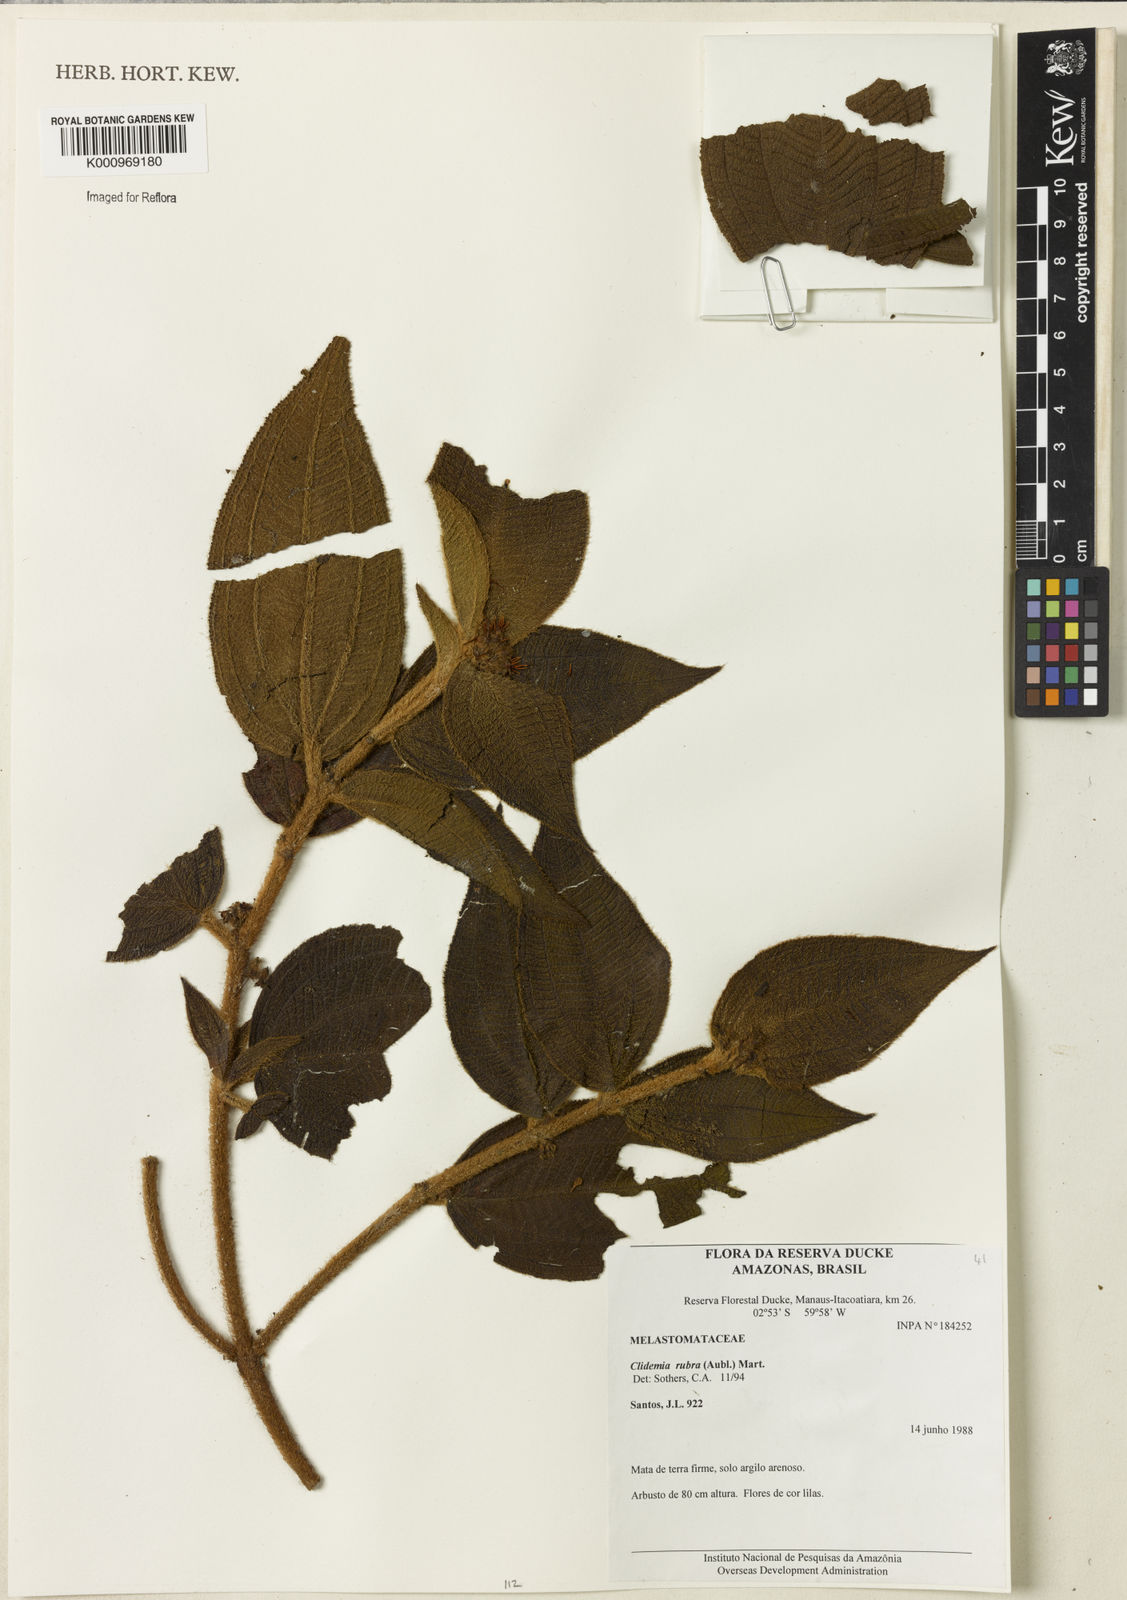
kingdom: Plantae
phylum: Tracheophyta
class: Magnoliopsida
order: Myrtales
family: Melastomataceae
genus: Miconia
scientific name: Miconia rubra
